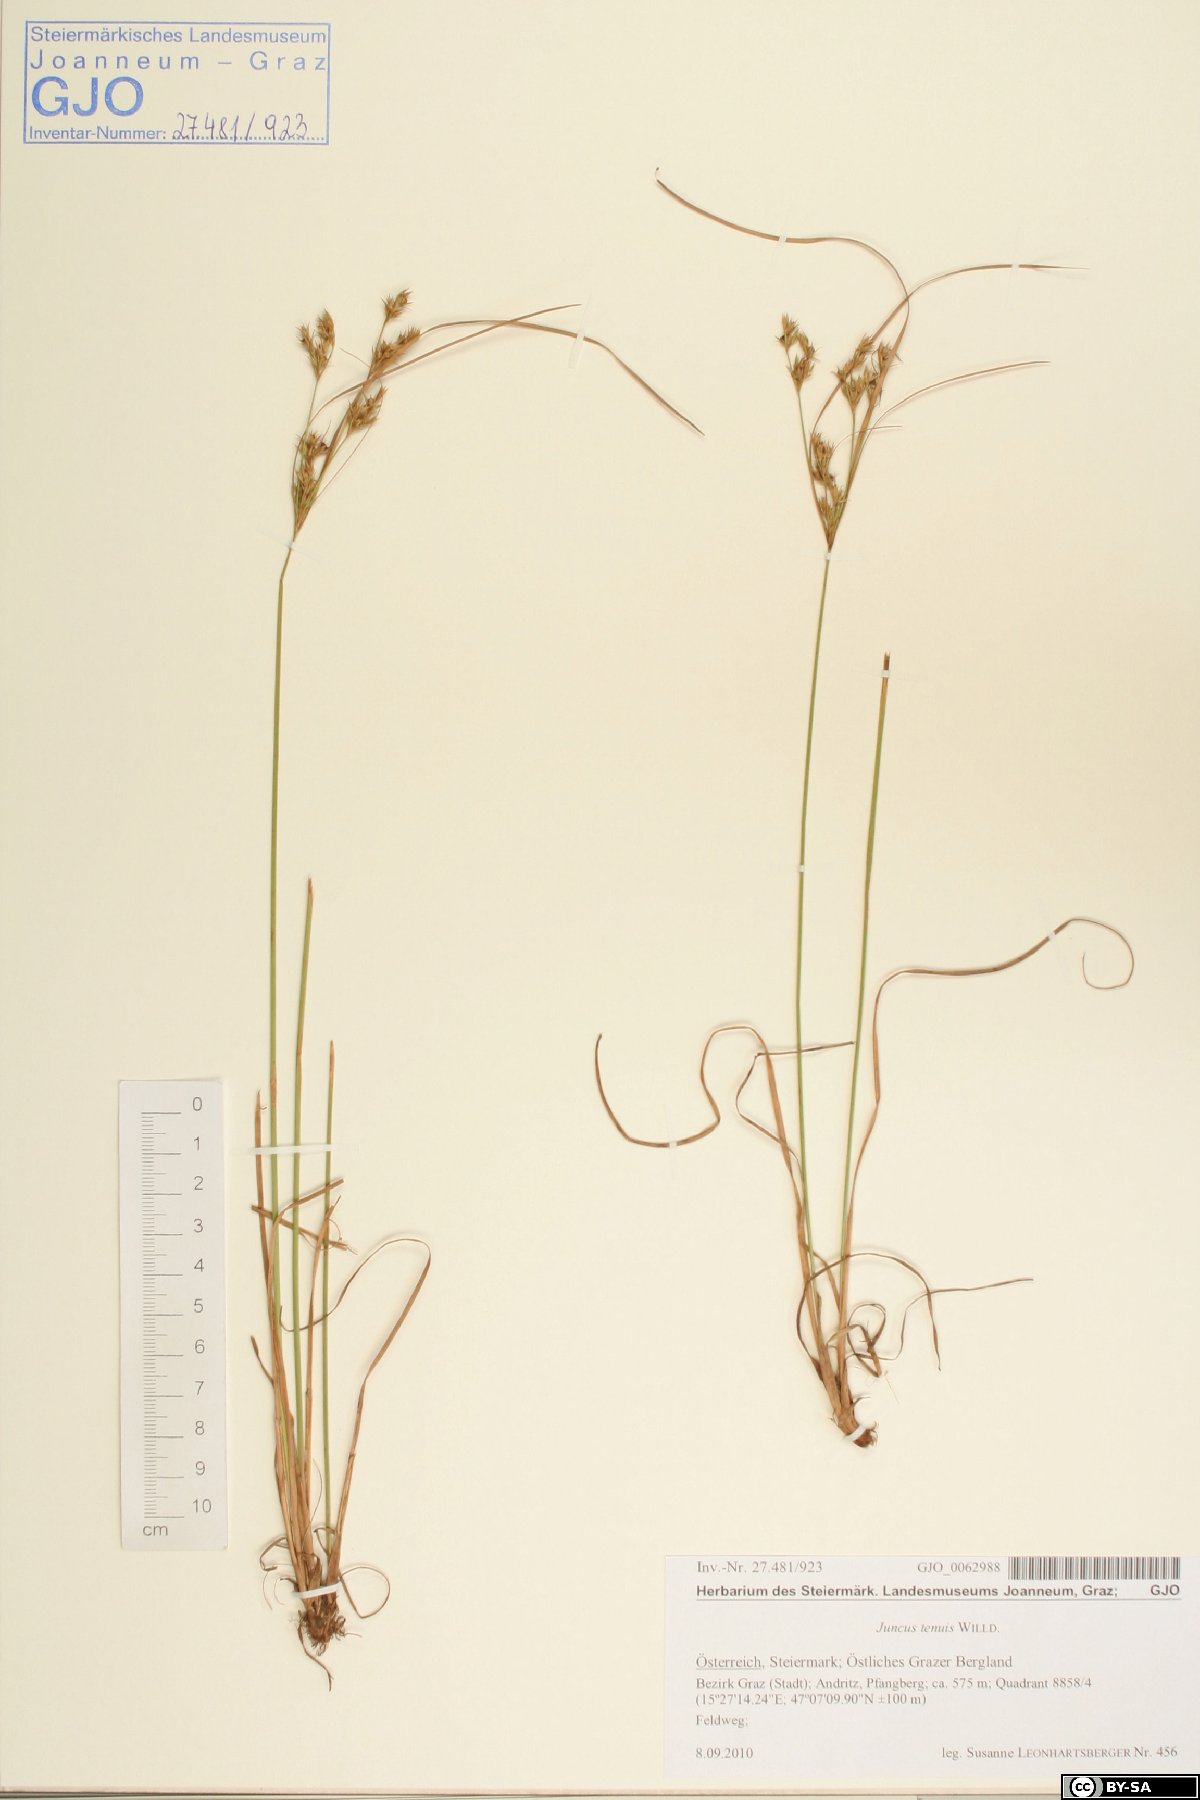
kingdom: Plantae
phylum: Tracheophyta
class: Liliopsida
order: Poales
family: Juncaceae
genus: Juncus
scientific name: Juncus tenuis
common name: Slender rush
